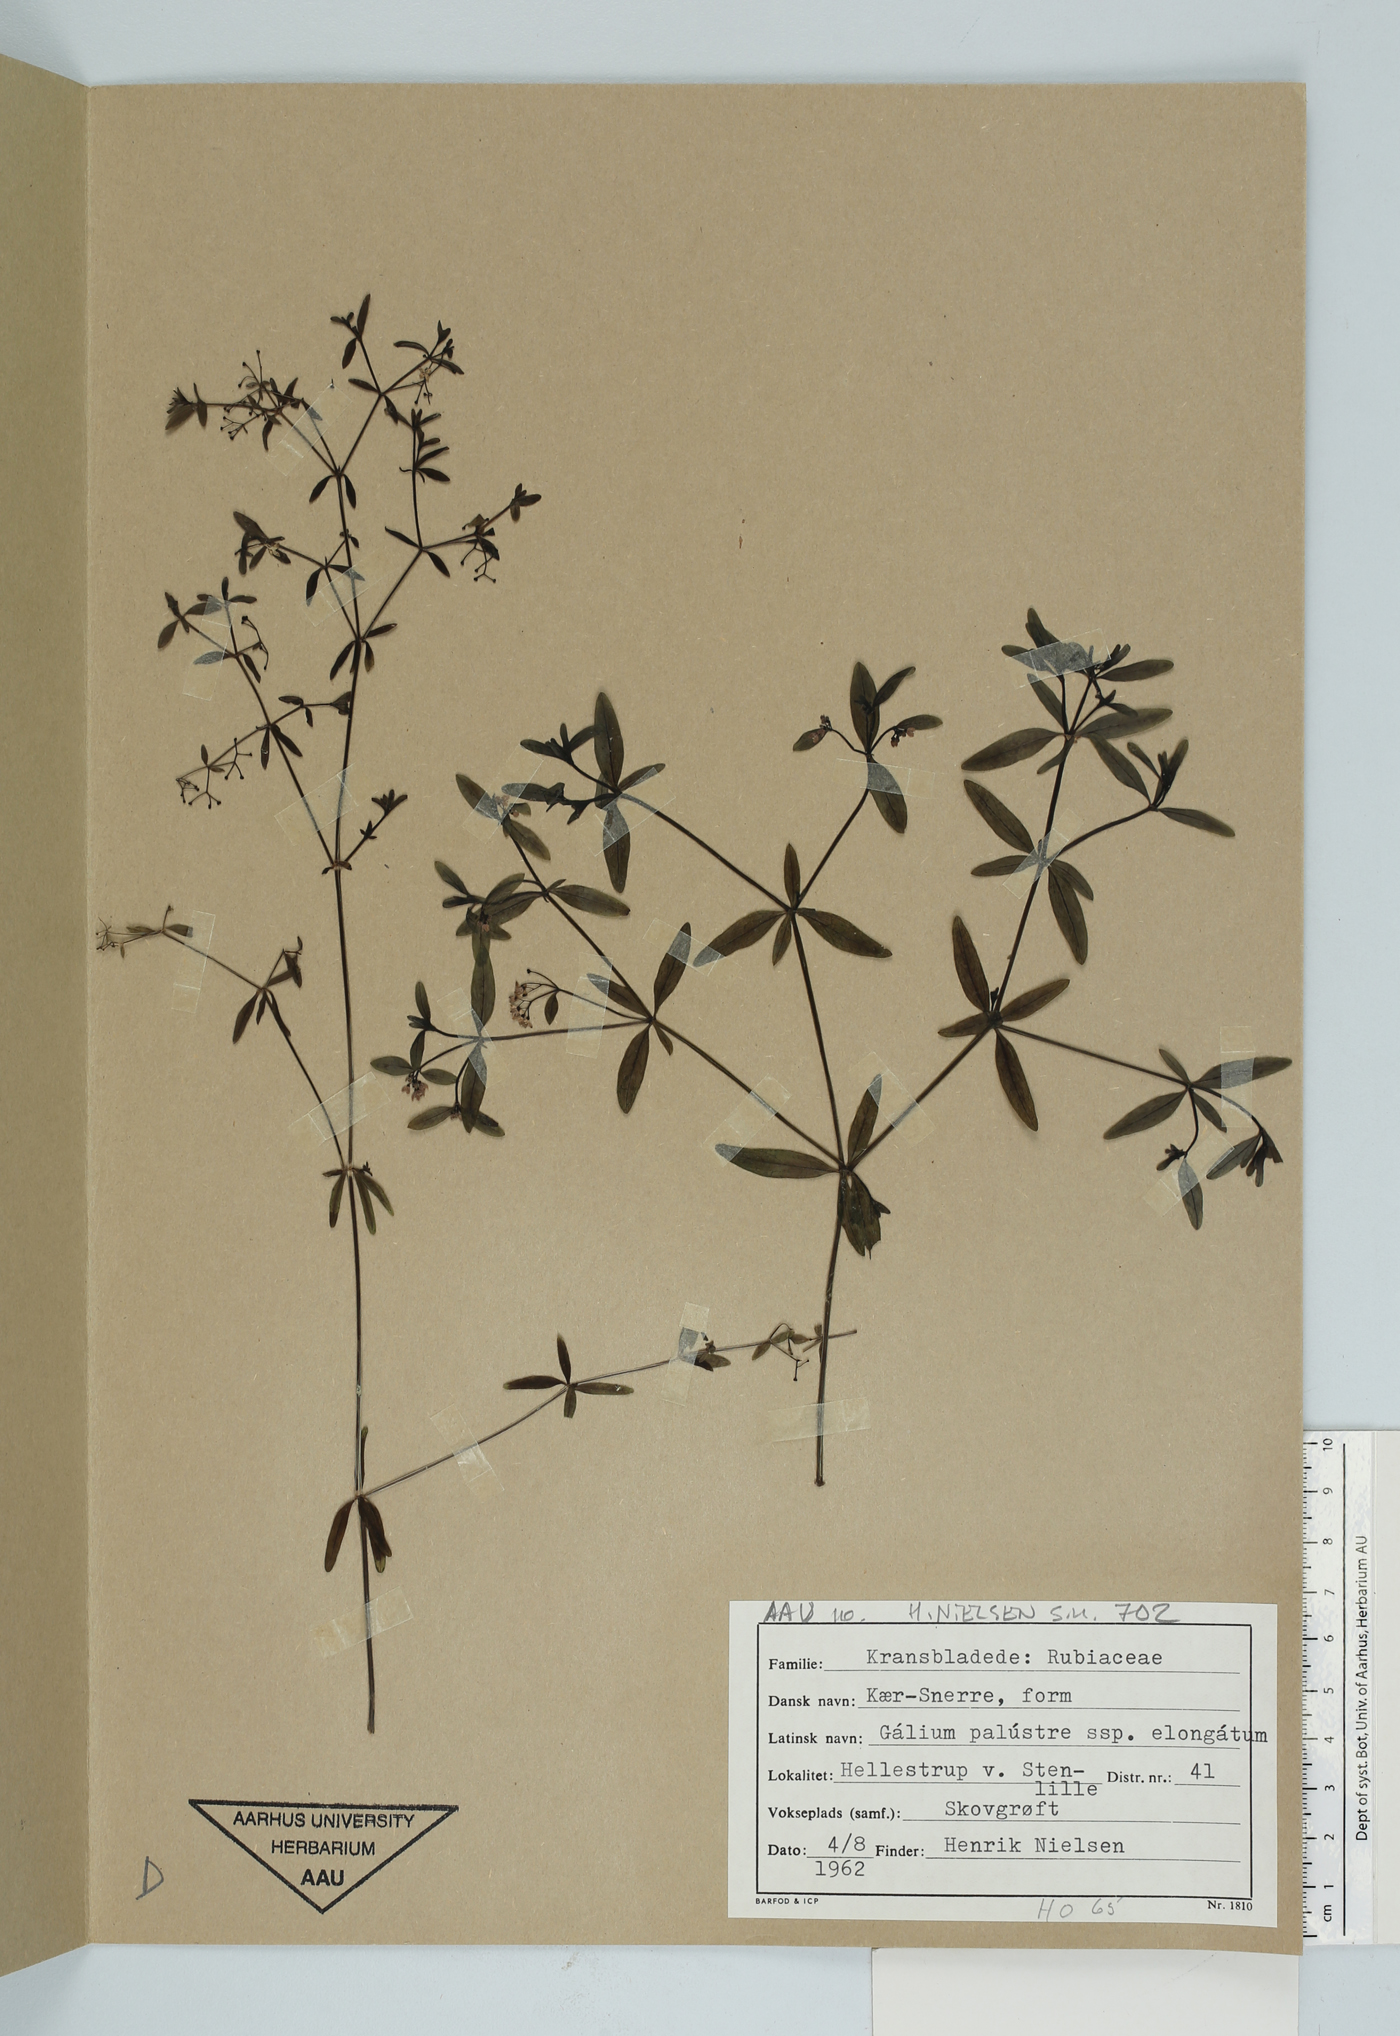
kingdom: Plantae
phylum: Tracheophyta
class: Magnoliopsida
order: Gentianales
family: Rubiaceae
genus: Galium
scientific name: Galium elongatum
